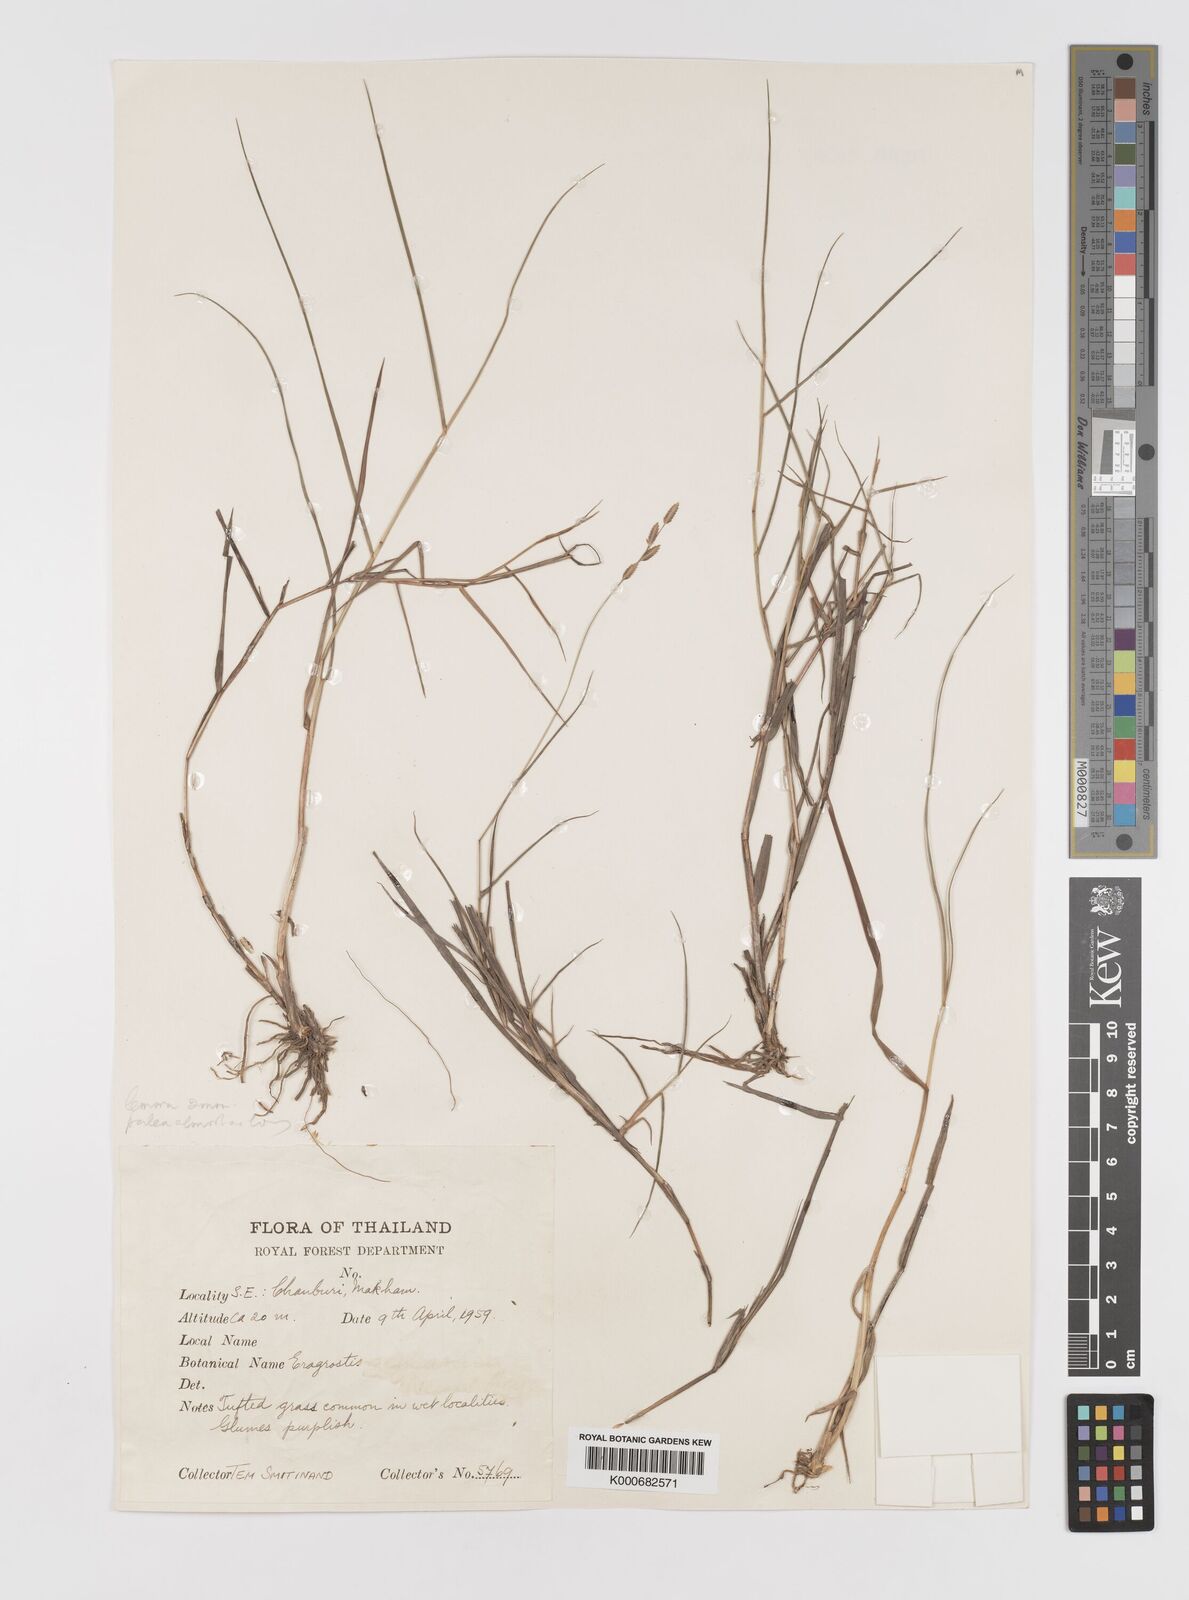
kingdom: Plantae
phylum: Tracheophyta
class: Liliopsida
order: Poales
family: Poaceae
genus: Eragrostis
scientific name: Eragrostis
